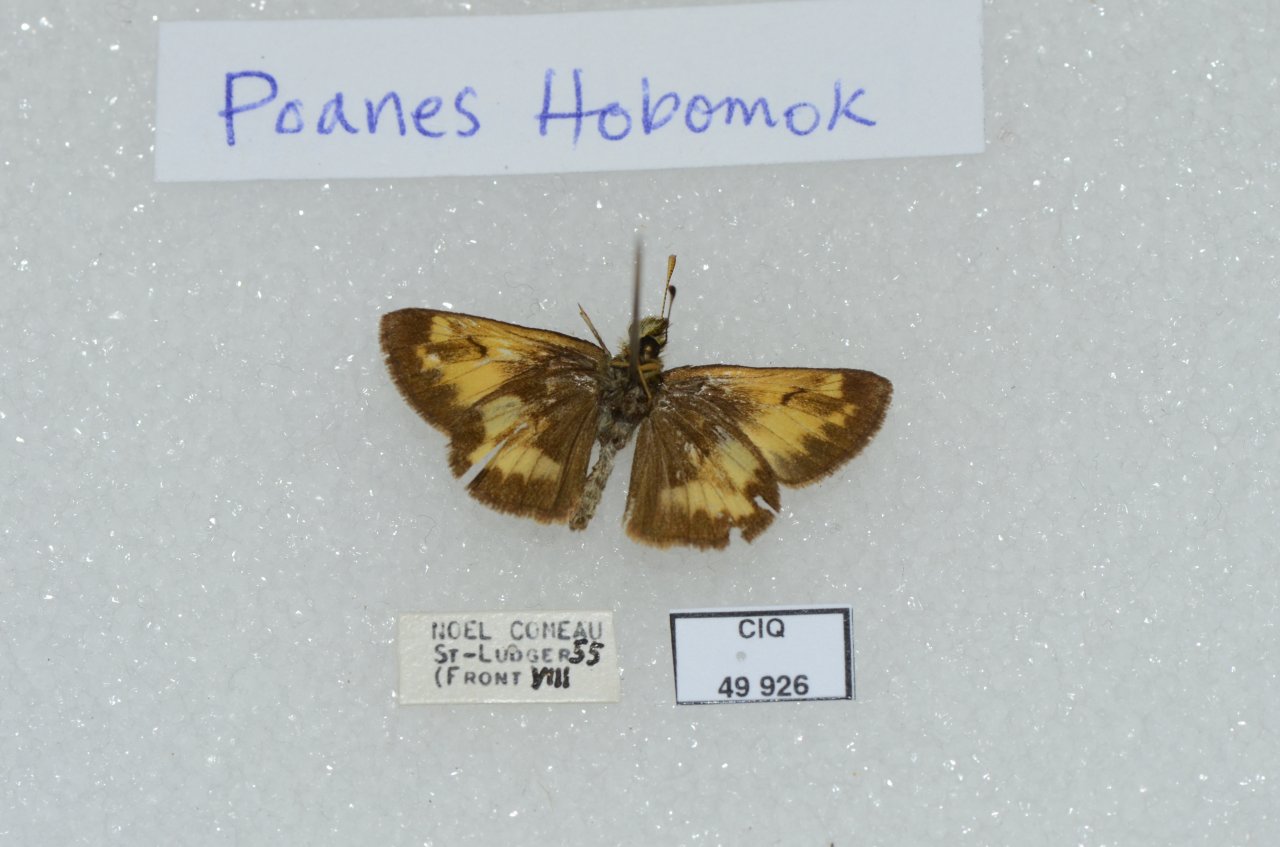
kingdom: Animalia
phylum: Arthropoda
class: Insecta
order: Lepidoptera
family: Hesperiidae
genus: Lon
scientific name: Lon hobomok
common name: Hobomok Skipper
